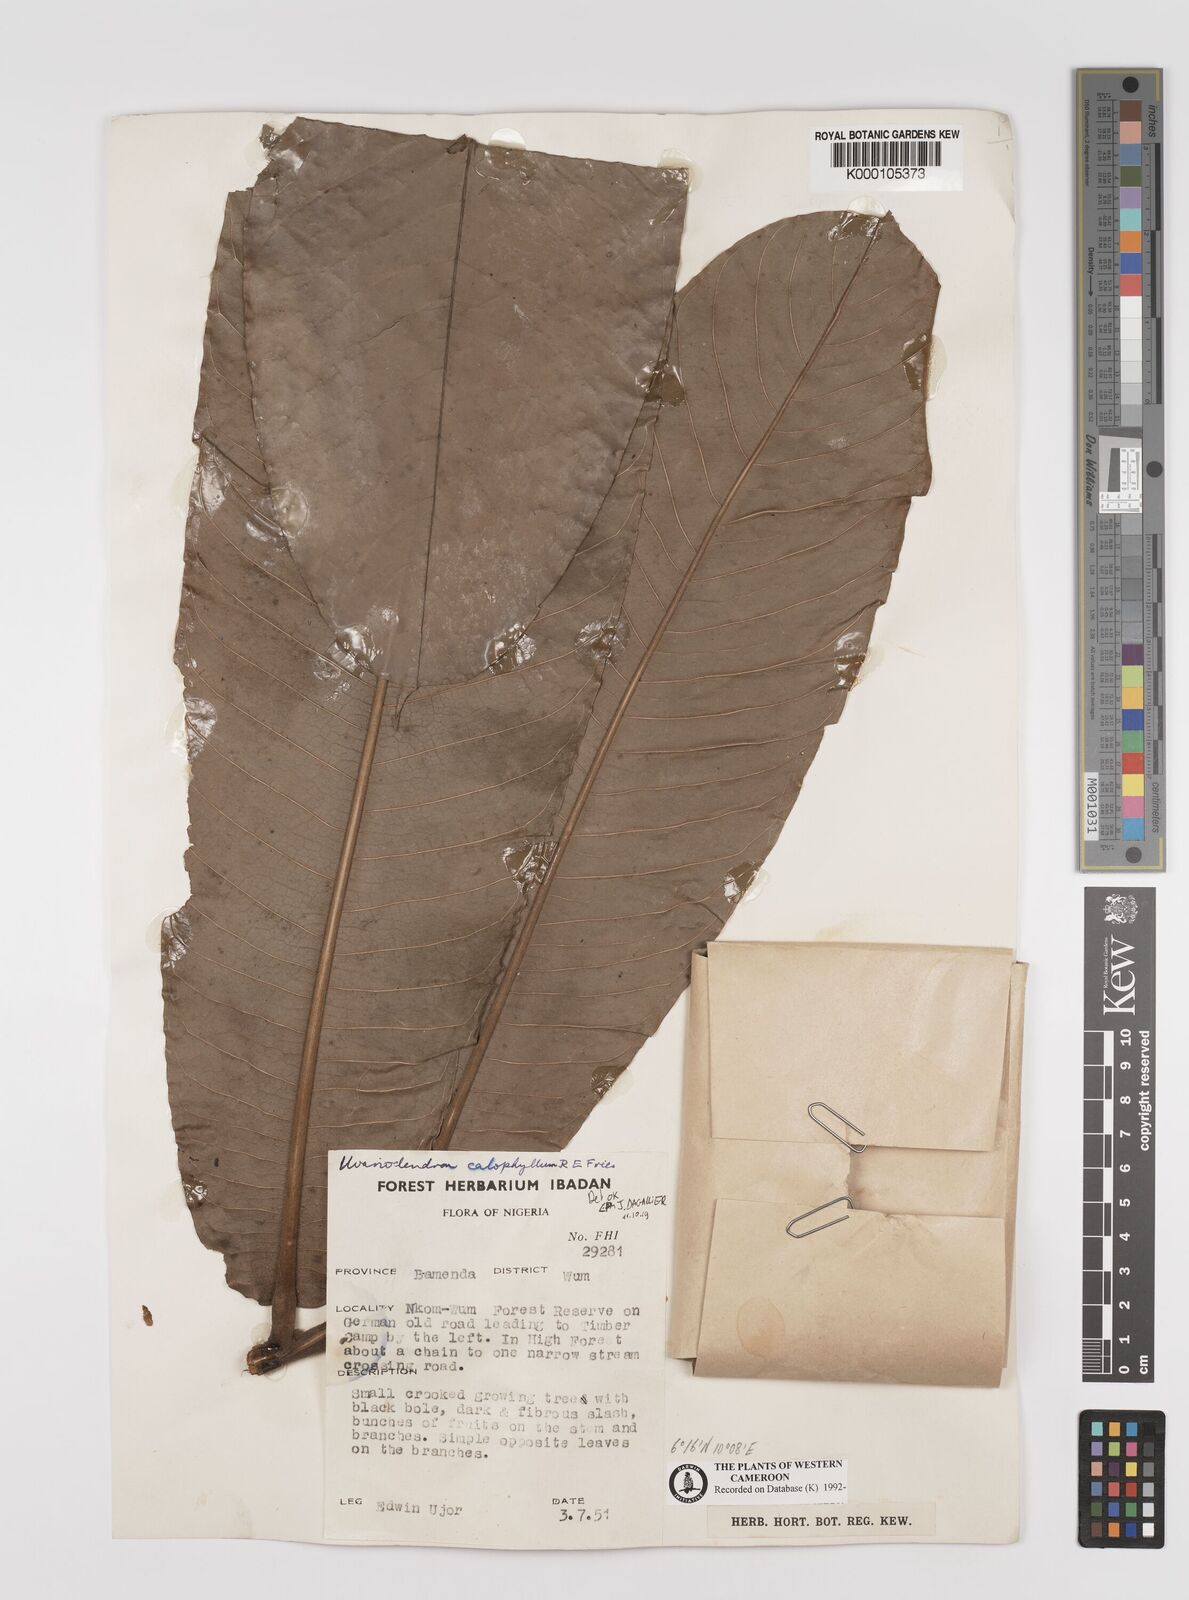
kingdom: Plantae
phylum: Tracheophyta
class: Magnoliopsida
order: Magnoliales
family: Annonaceae
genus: Uvariodendron
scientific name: Uvariodendron calophyllum
